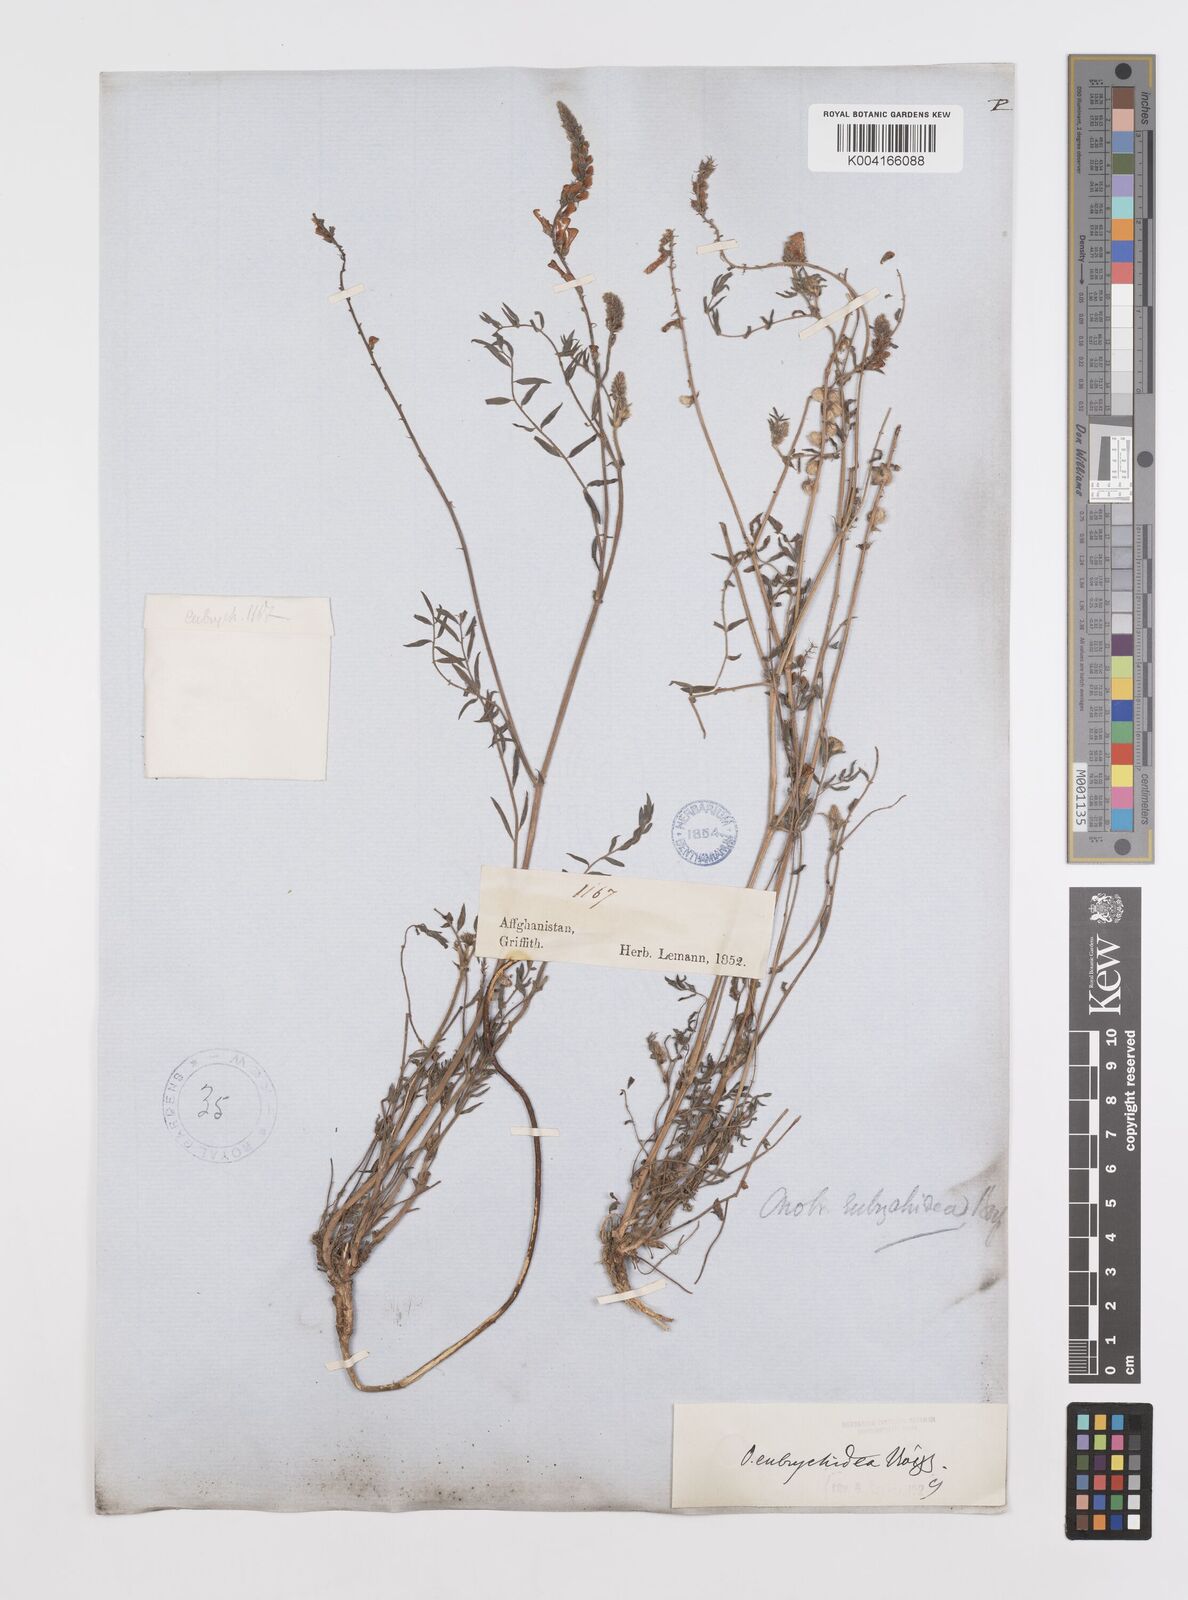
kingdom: Plantae
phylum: Tracheophyta
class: Magnoliopsida
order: Fabales
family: Fabaceae
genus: Onobrychis
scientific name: Onobrychis eubrychidea
